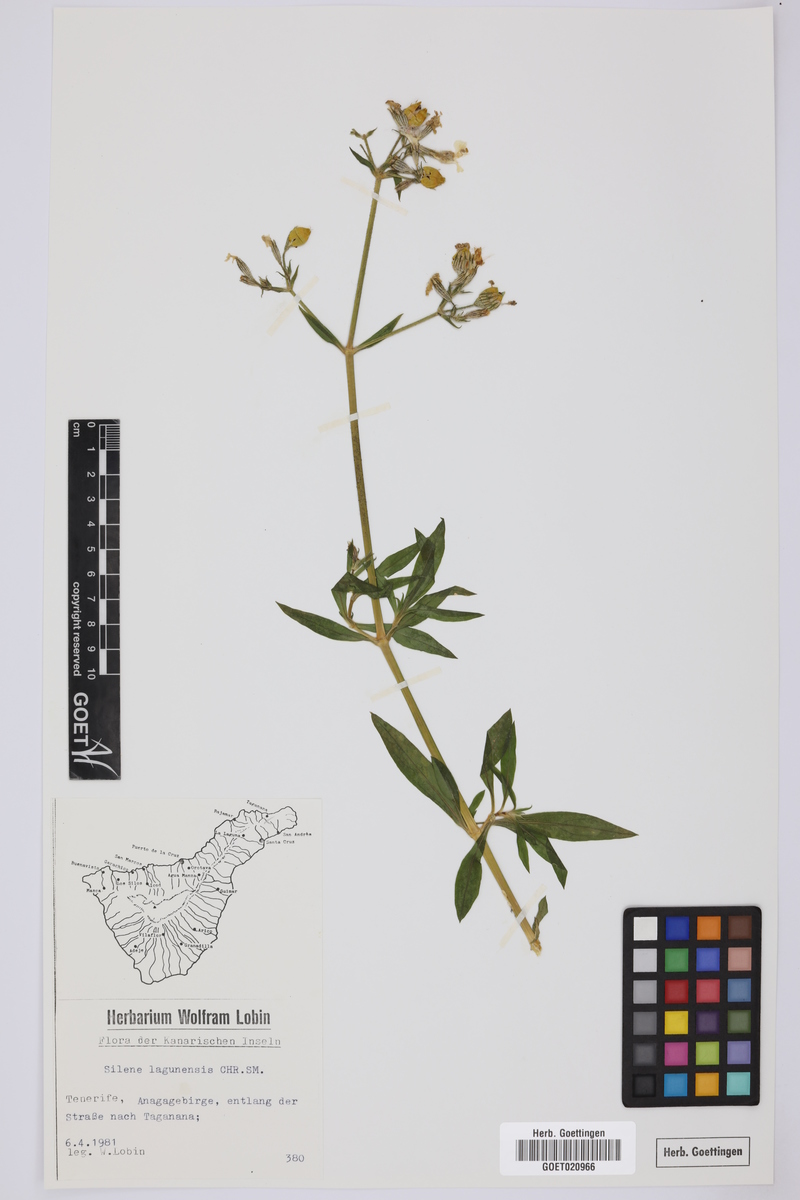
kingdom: Plantae
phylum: Tracheophyta
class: Magnoliopsida
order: Caryophyllales
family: Caryophyllaceae
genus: Silene
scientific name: Silene lagunensis
